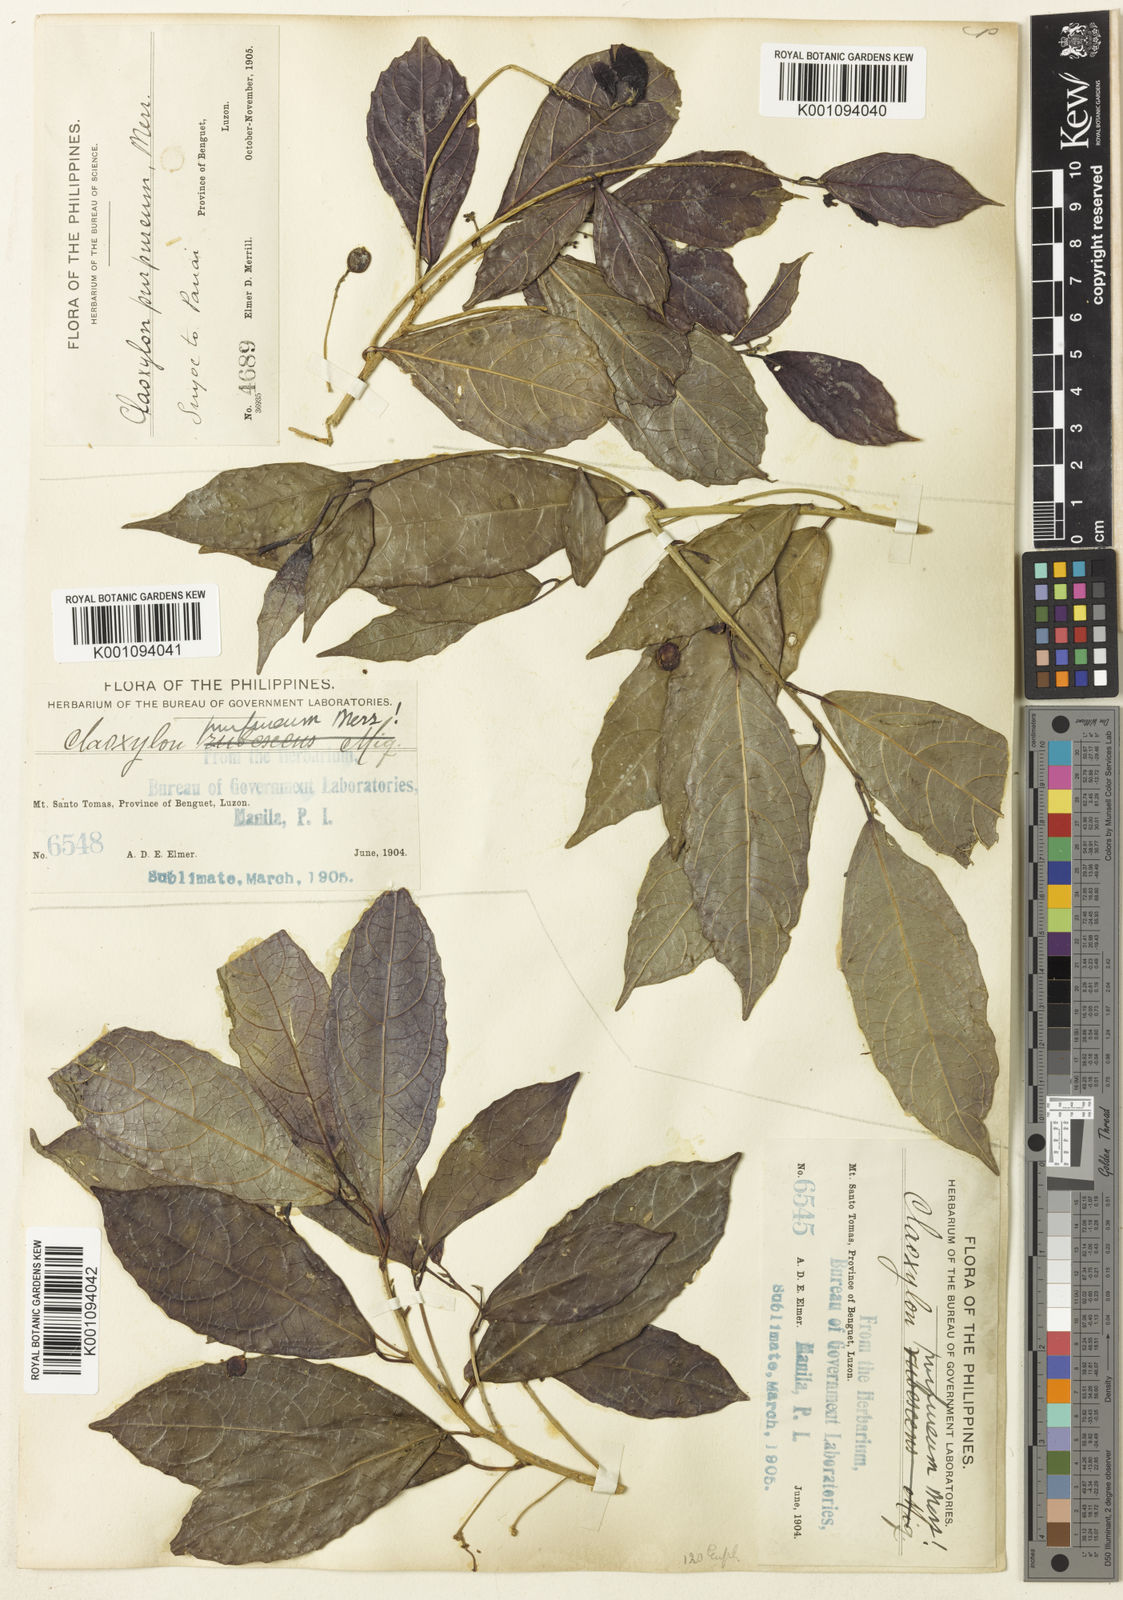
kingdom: Plantae
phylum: Tracheophyta
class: Magnoliopsida
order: Malpighiales
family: Euphorbiaceae
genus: Claoxylon
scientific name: Claoxylon purpureum
